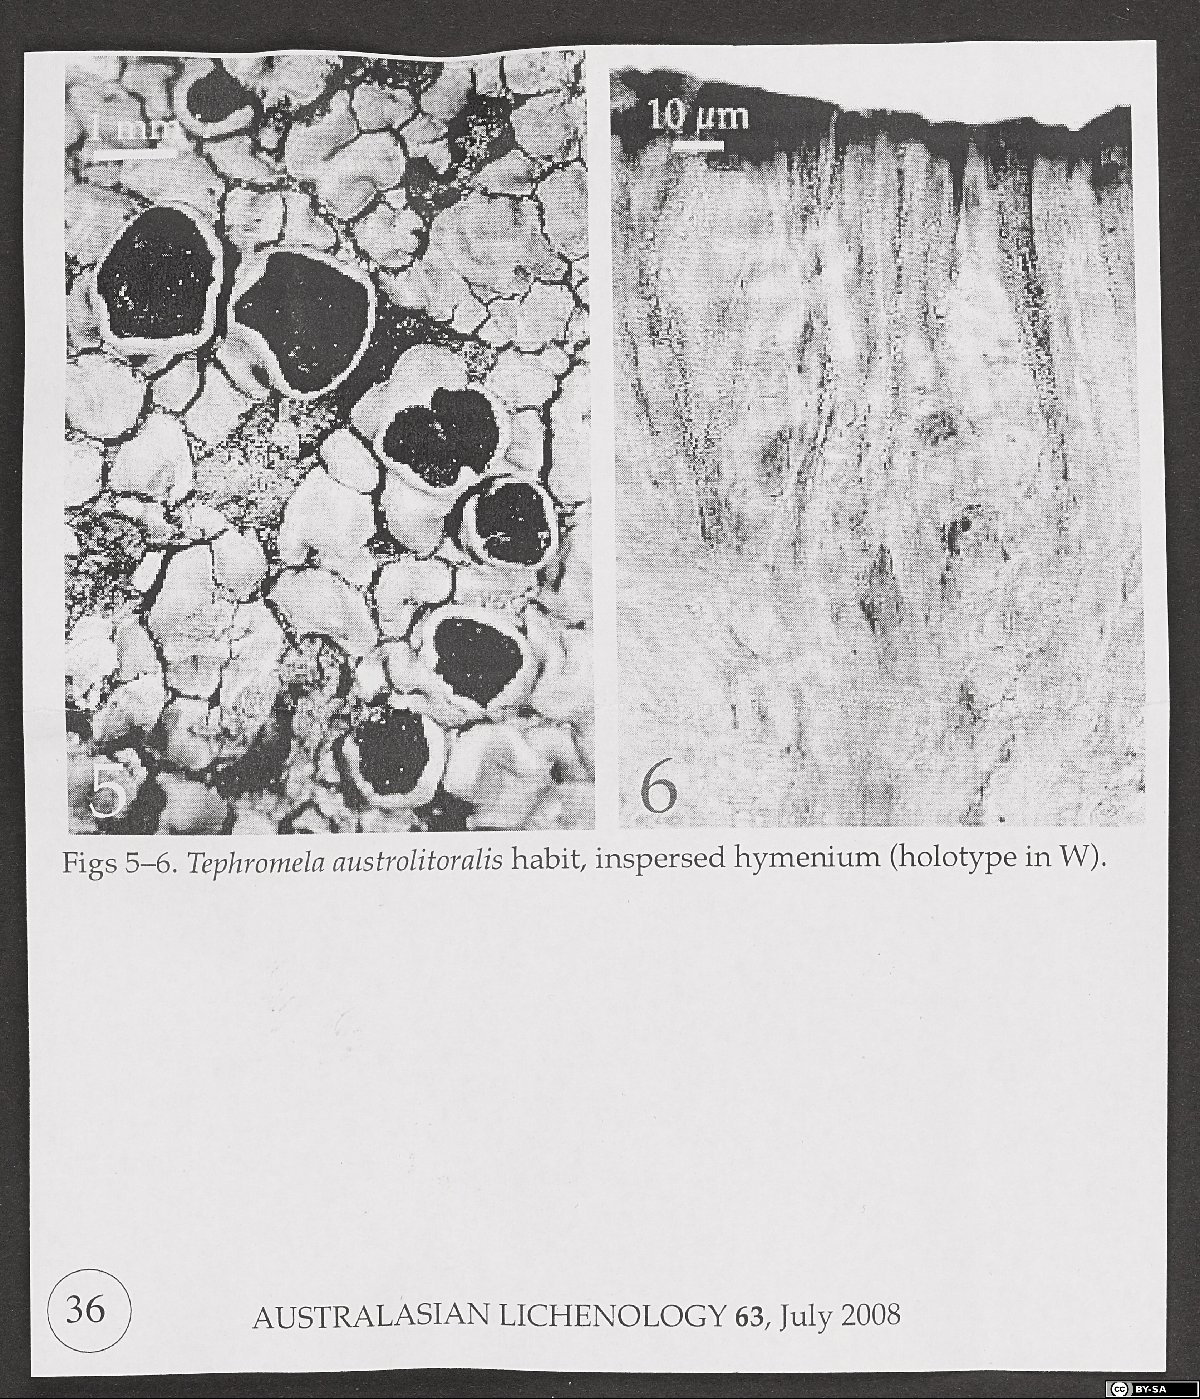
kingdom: Fungi
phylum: Ascomycota
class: Lecanoromycetes
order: Lecanorales
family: Tephromelataceae
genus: Tephromela
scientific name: Tephromela austrolitoralis
